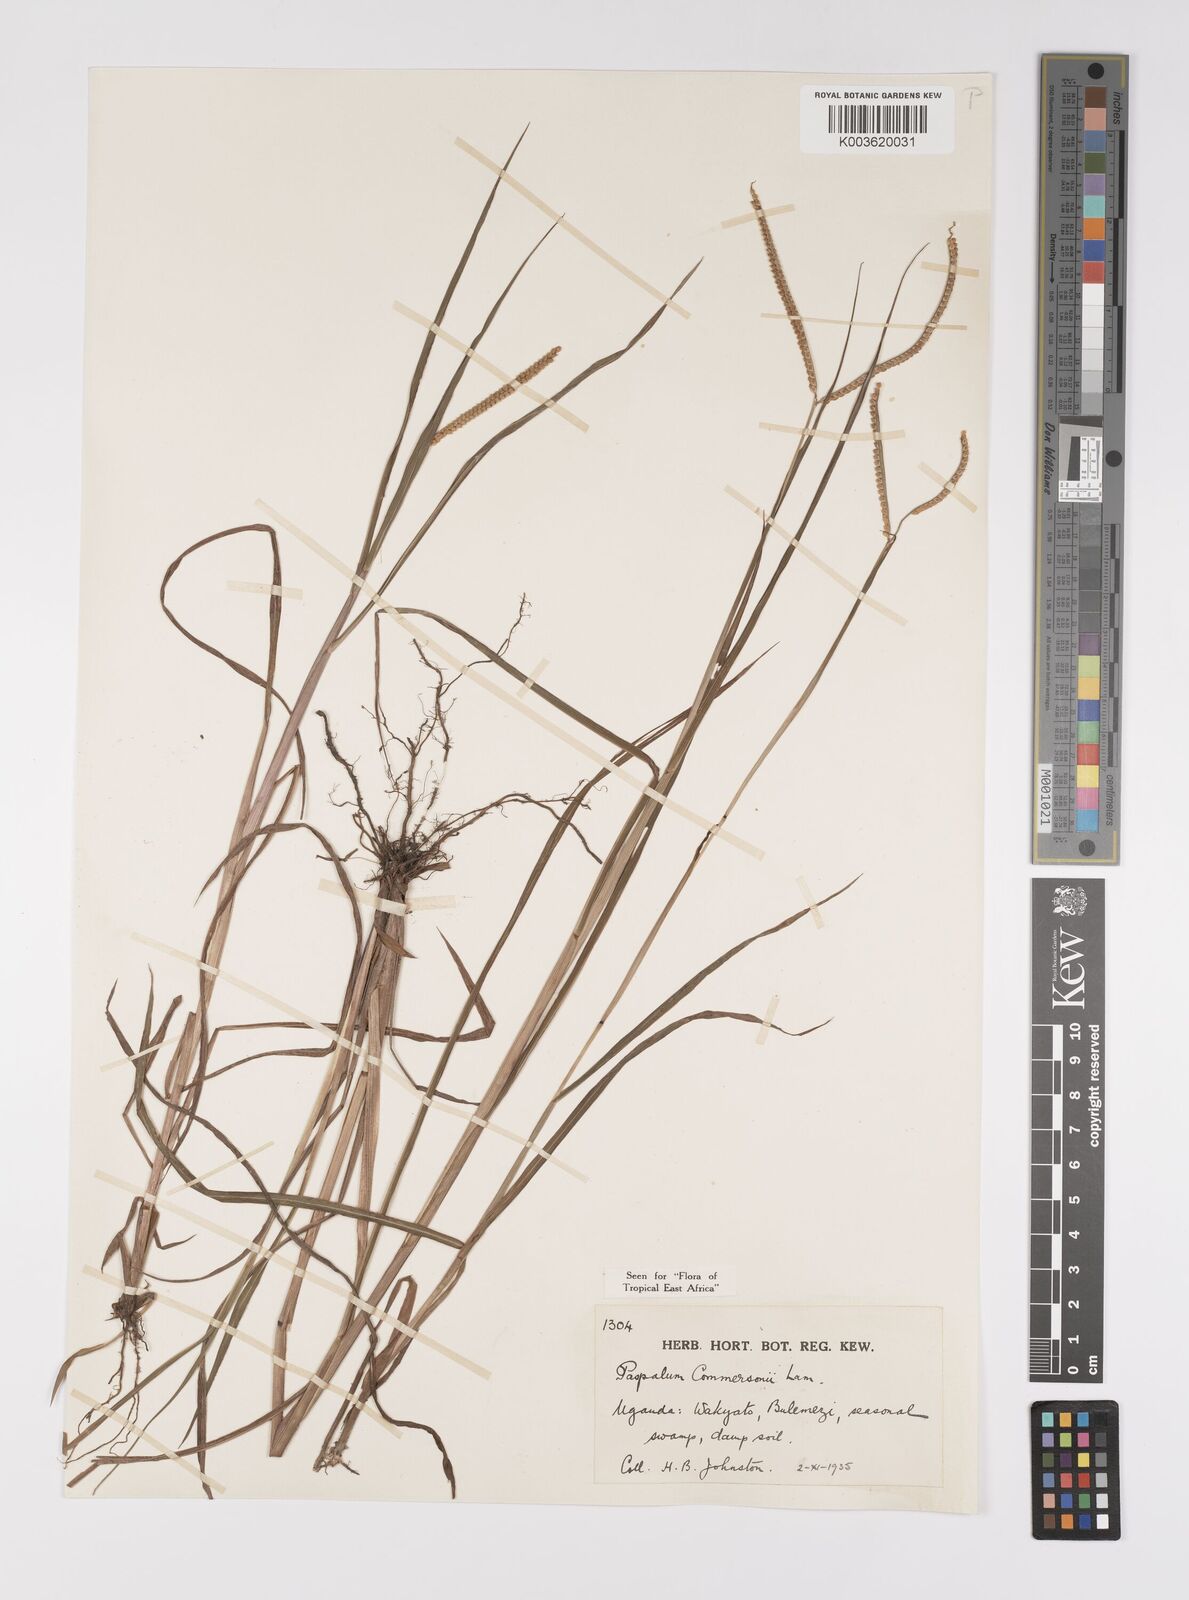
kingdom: Plantae
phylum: Tracheophyta
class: Liliopsida
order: Poales
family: Poaceae
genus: Paspalum
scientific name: Paspalum scrobiculatum
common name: Kodo millet
